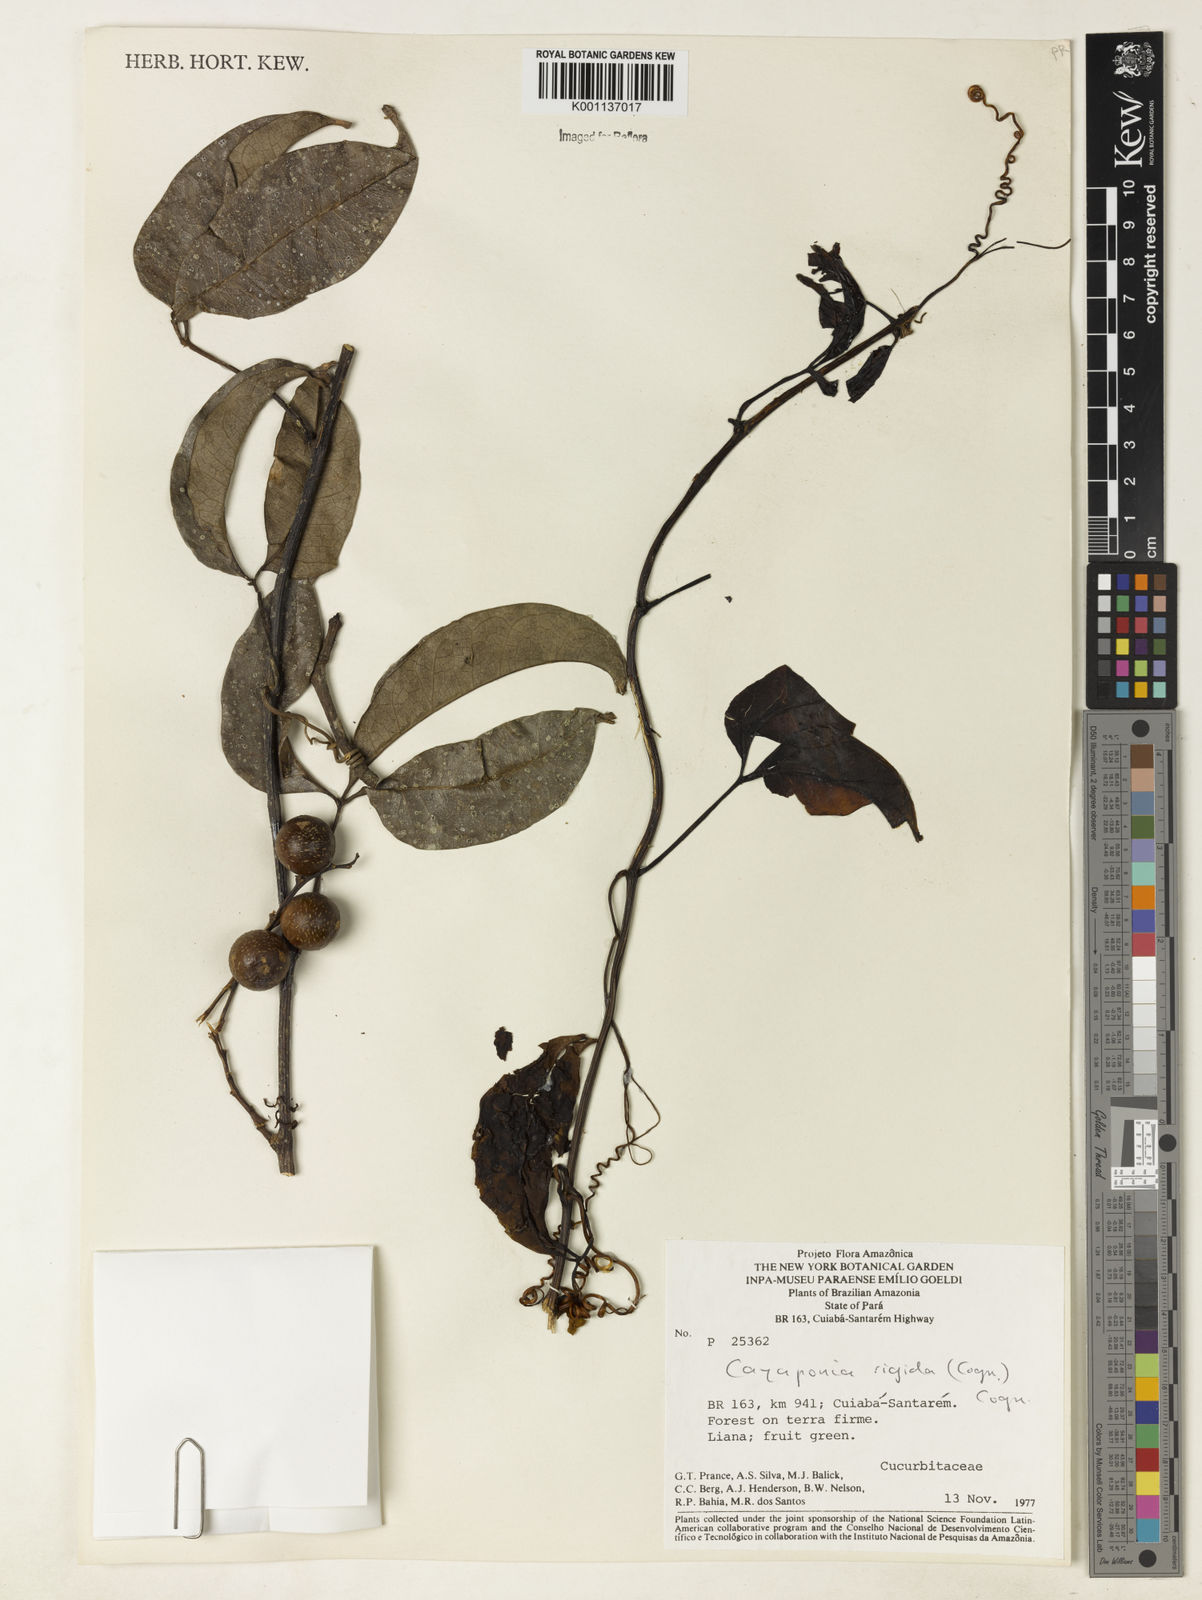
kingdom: Plantae
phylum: Tracheophyta
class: Magnoliopsida
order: Cucurbitales
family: Cucurbitaceae
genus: Cayaponia
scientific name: Cayaponia rigida
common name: Boskomkommer
